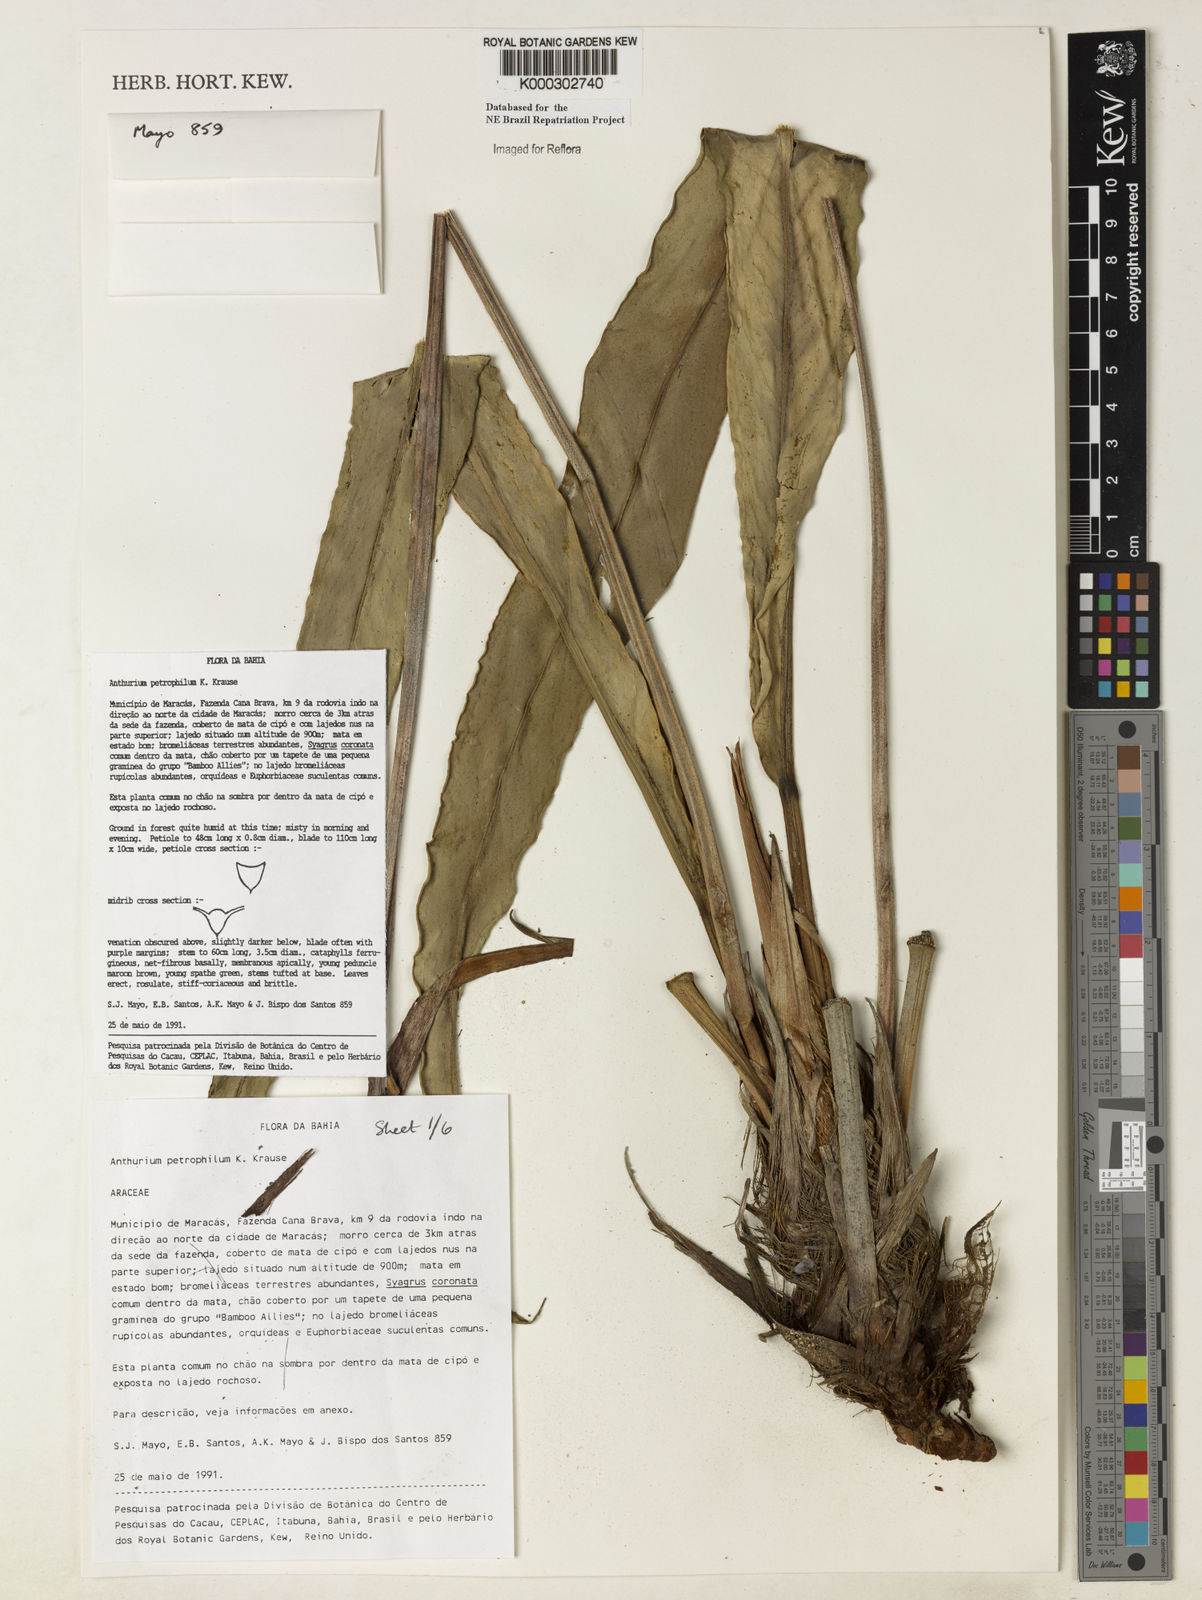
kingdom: Plantae
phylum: Tracheophyta
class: Liliopsida
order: Alismatales
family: Araceae
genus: Anthurium
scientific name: Anthurium petrophilum
